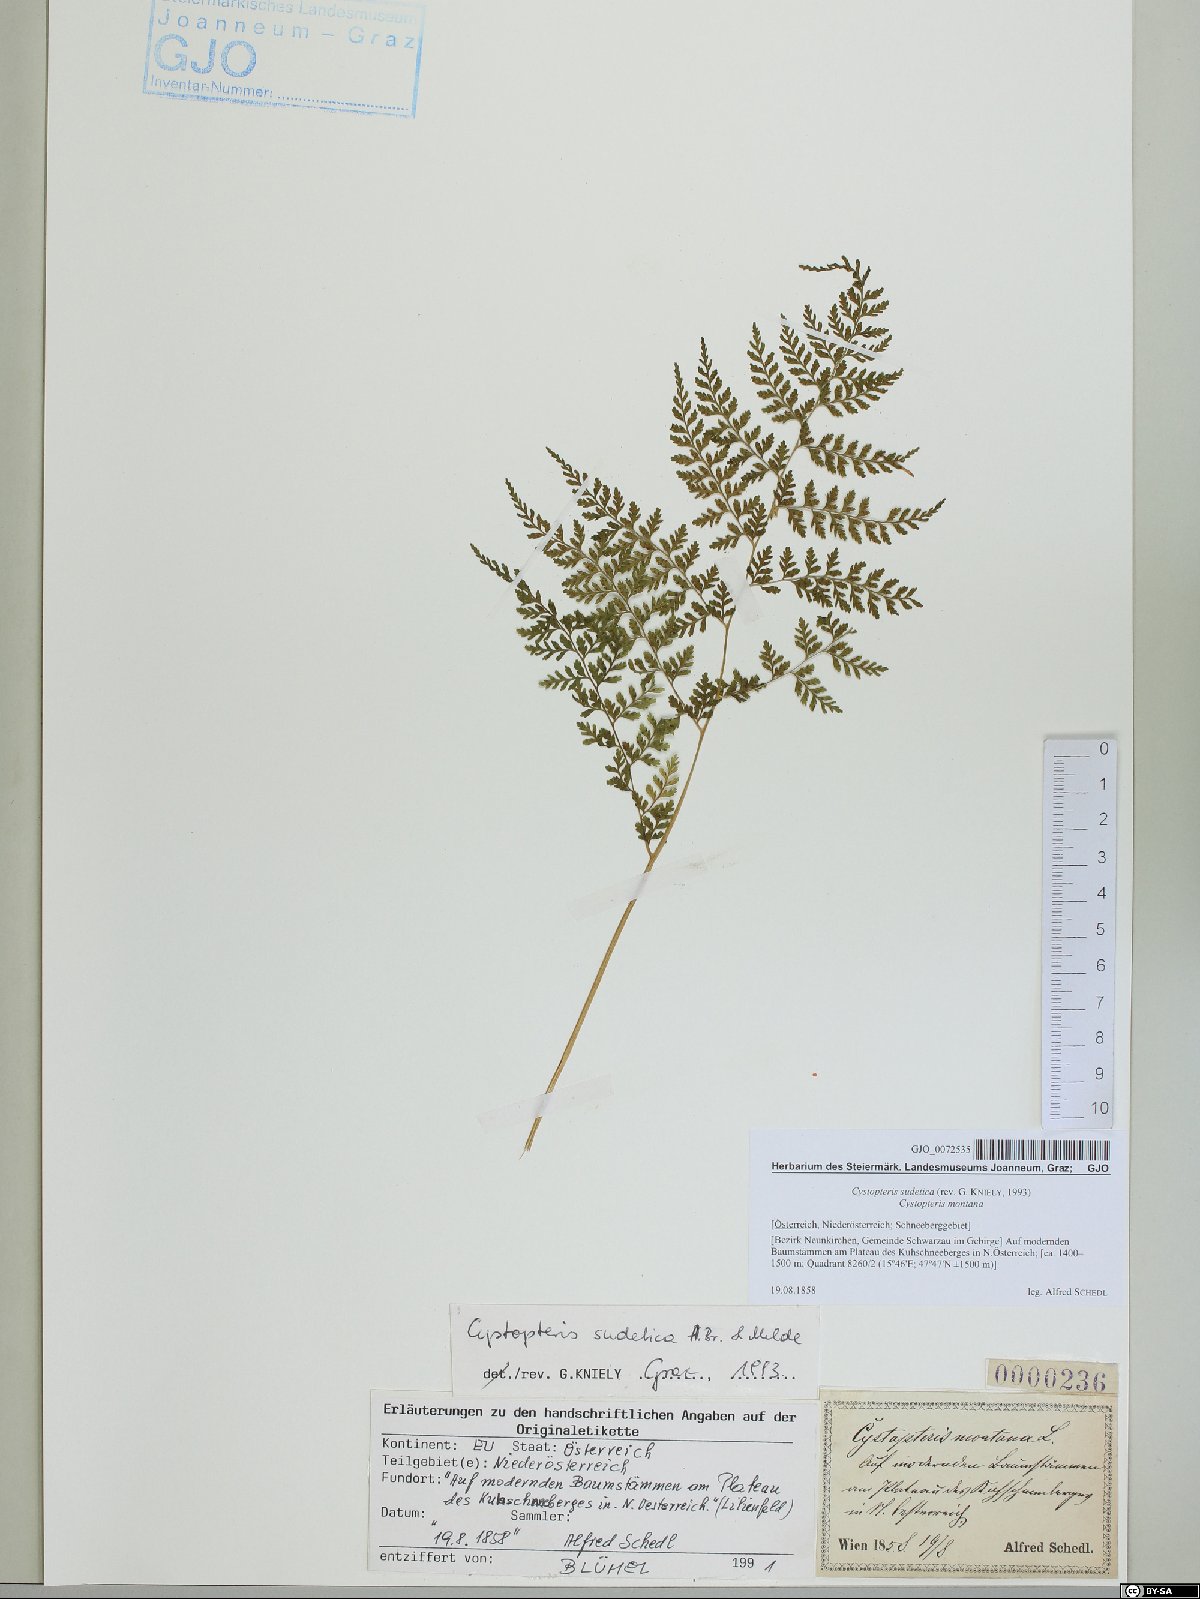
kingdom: Plantae
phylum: Tracheophyta
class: Polypodiopsida
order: Polypodiales
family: Cystopteridaceae
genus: Cystopteris
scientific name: Cystopteris sudetica
